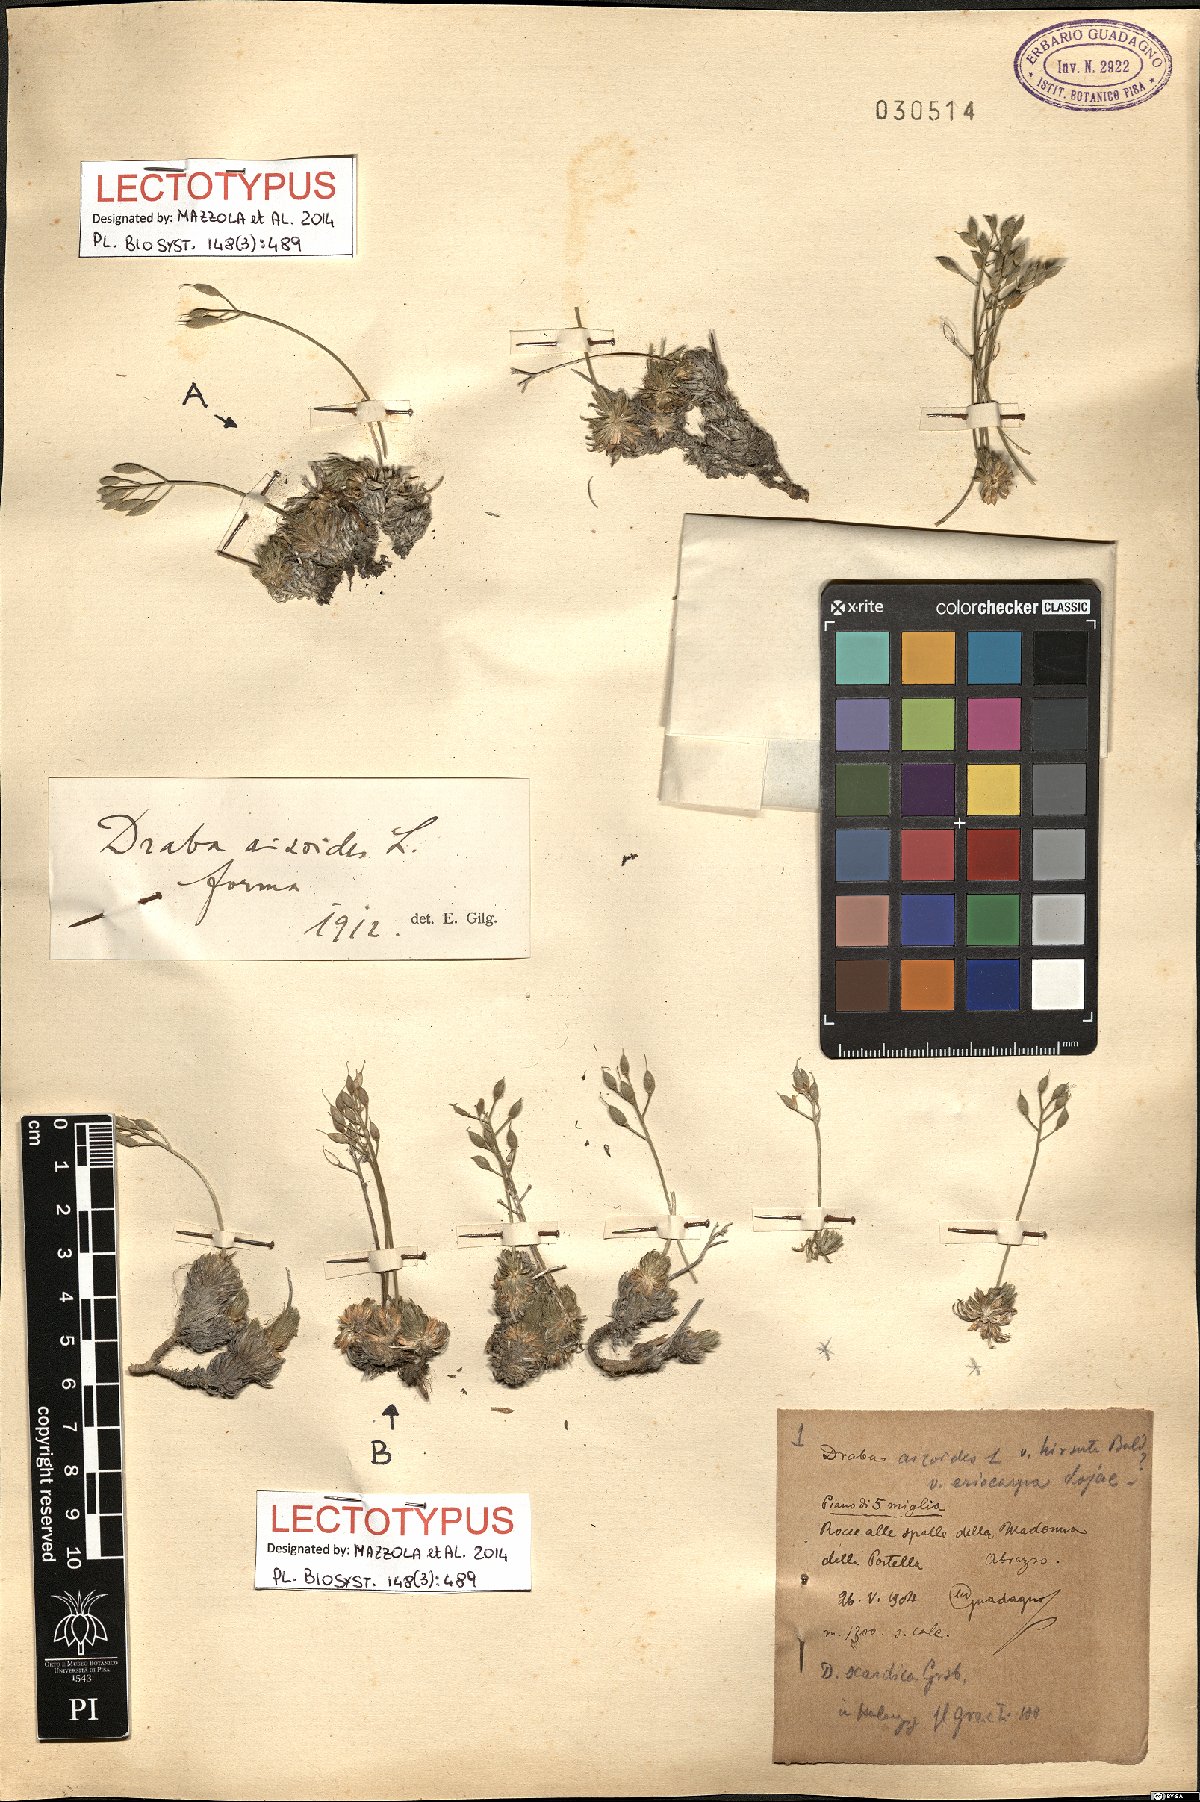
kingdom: Plantae
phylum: Tracheophyta
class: Magnoliopsida
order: Brassicales
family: Brassicaceae
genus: Draba
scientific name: Draba aizoides
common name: Yellow whitlowgrass
